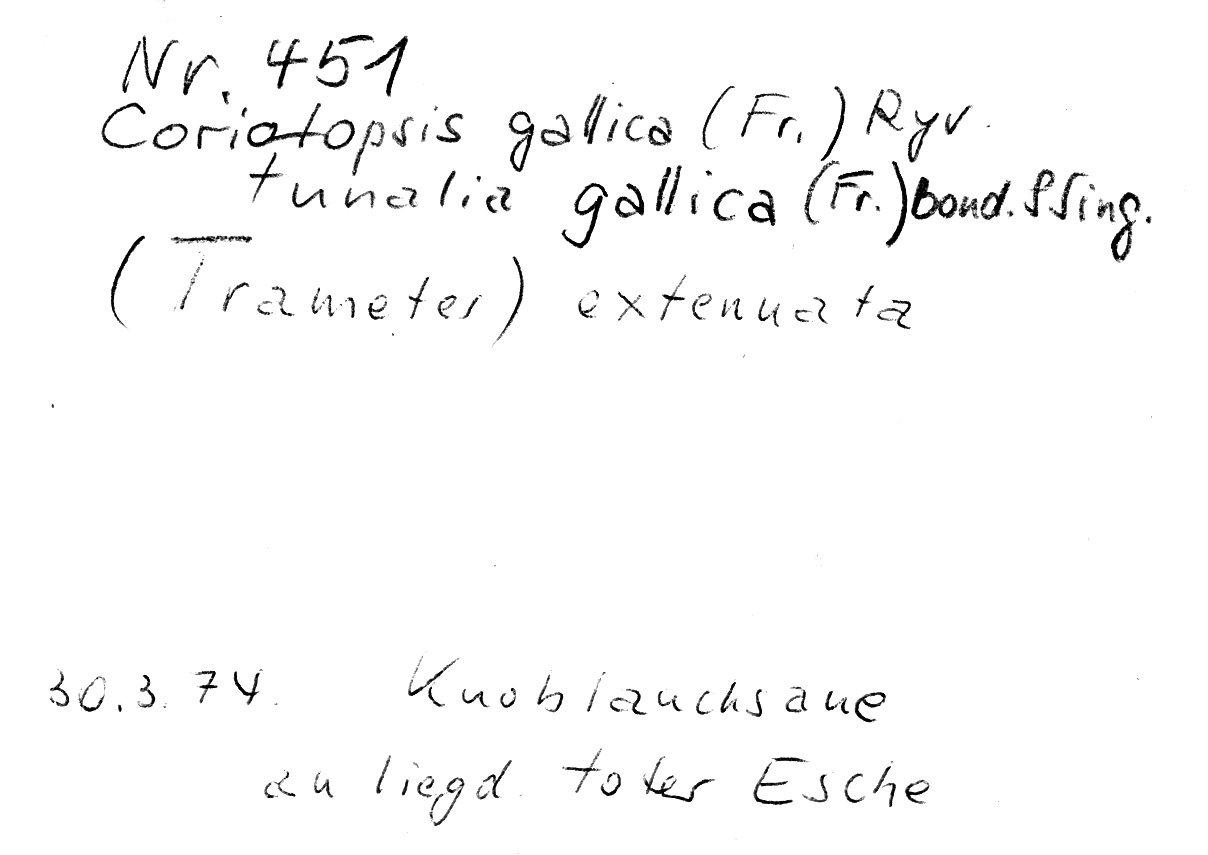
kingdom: Fungi
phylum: Basidiomycota
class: Agaricomycetes
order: Polyporales
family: Polyporaceae
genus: Coriolopsis
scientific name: Coriolopsis gallica
